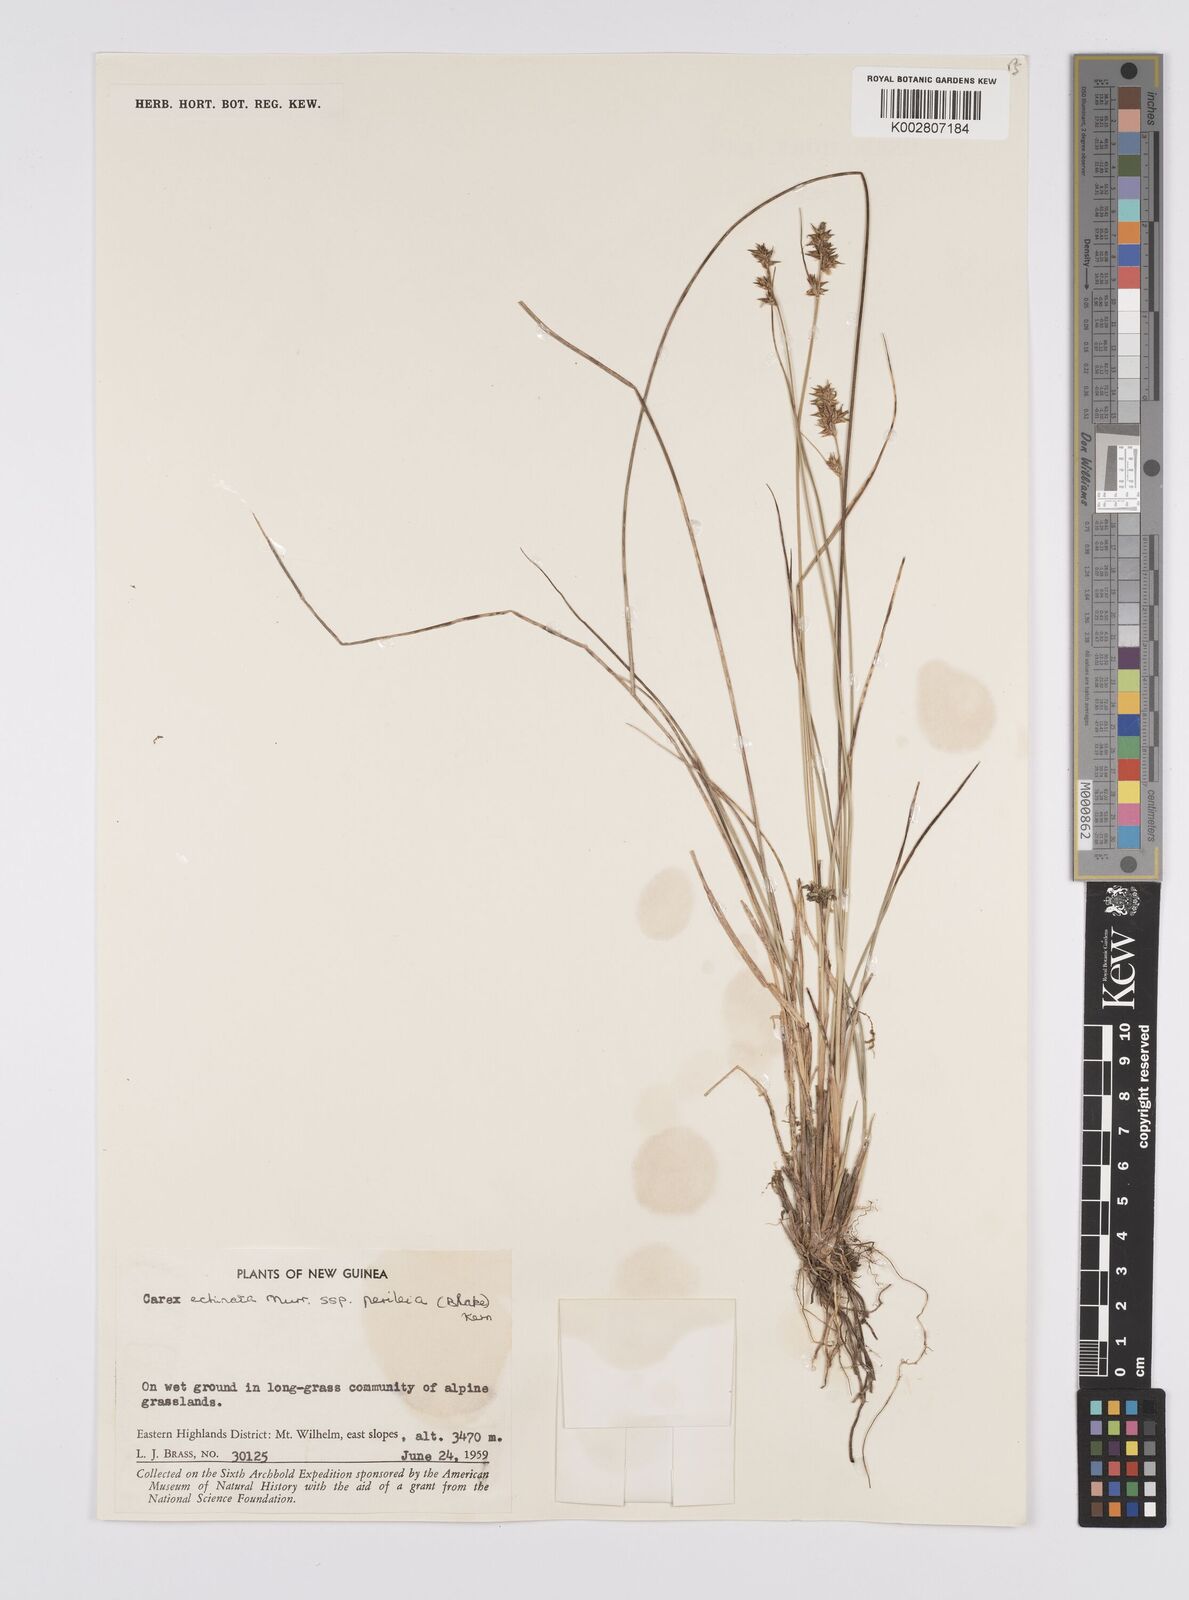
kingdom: Plantae
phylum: Tracheophyta
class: Liliopsida
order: Poales
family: Cyperaceae
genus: Carex
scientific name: Carex echinata
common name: Star sedge
